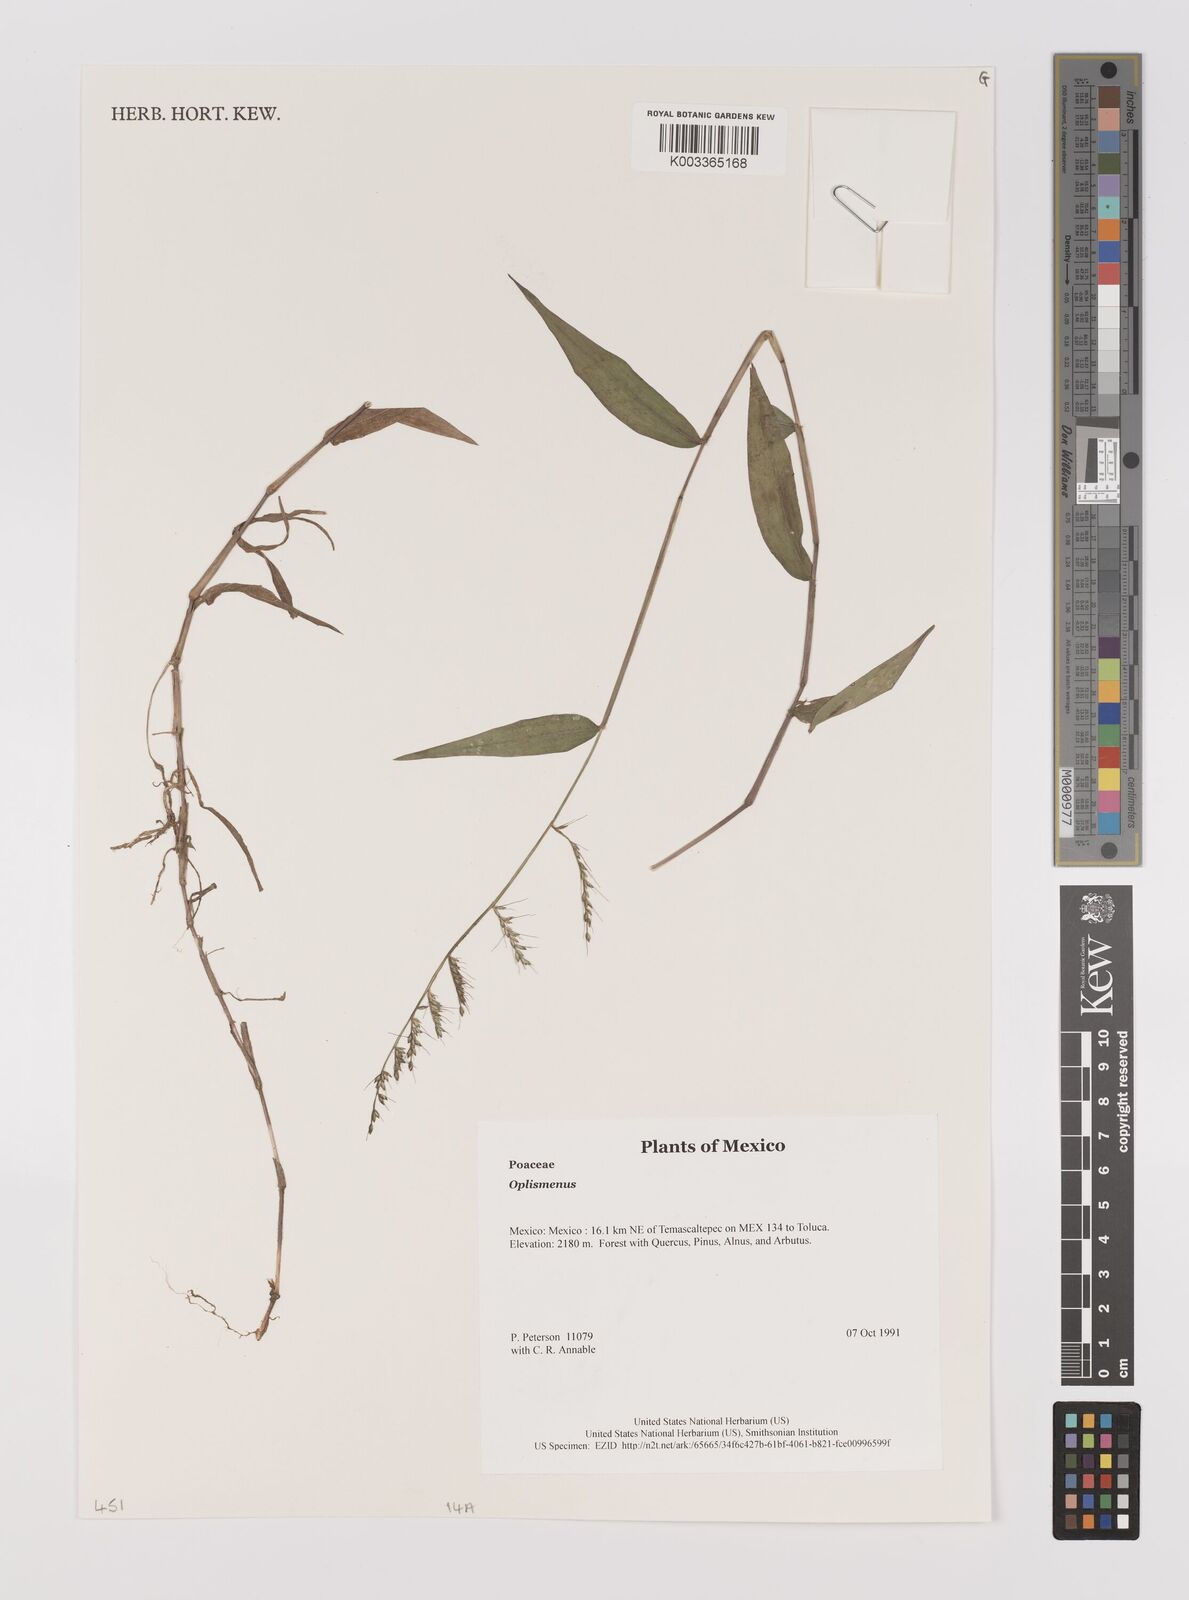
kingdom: Plantae
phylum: Tracheophyta
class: Liliopsida
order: Poales
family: Poaceae
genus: Oplismenus
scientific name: Oplismenus
